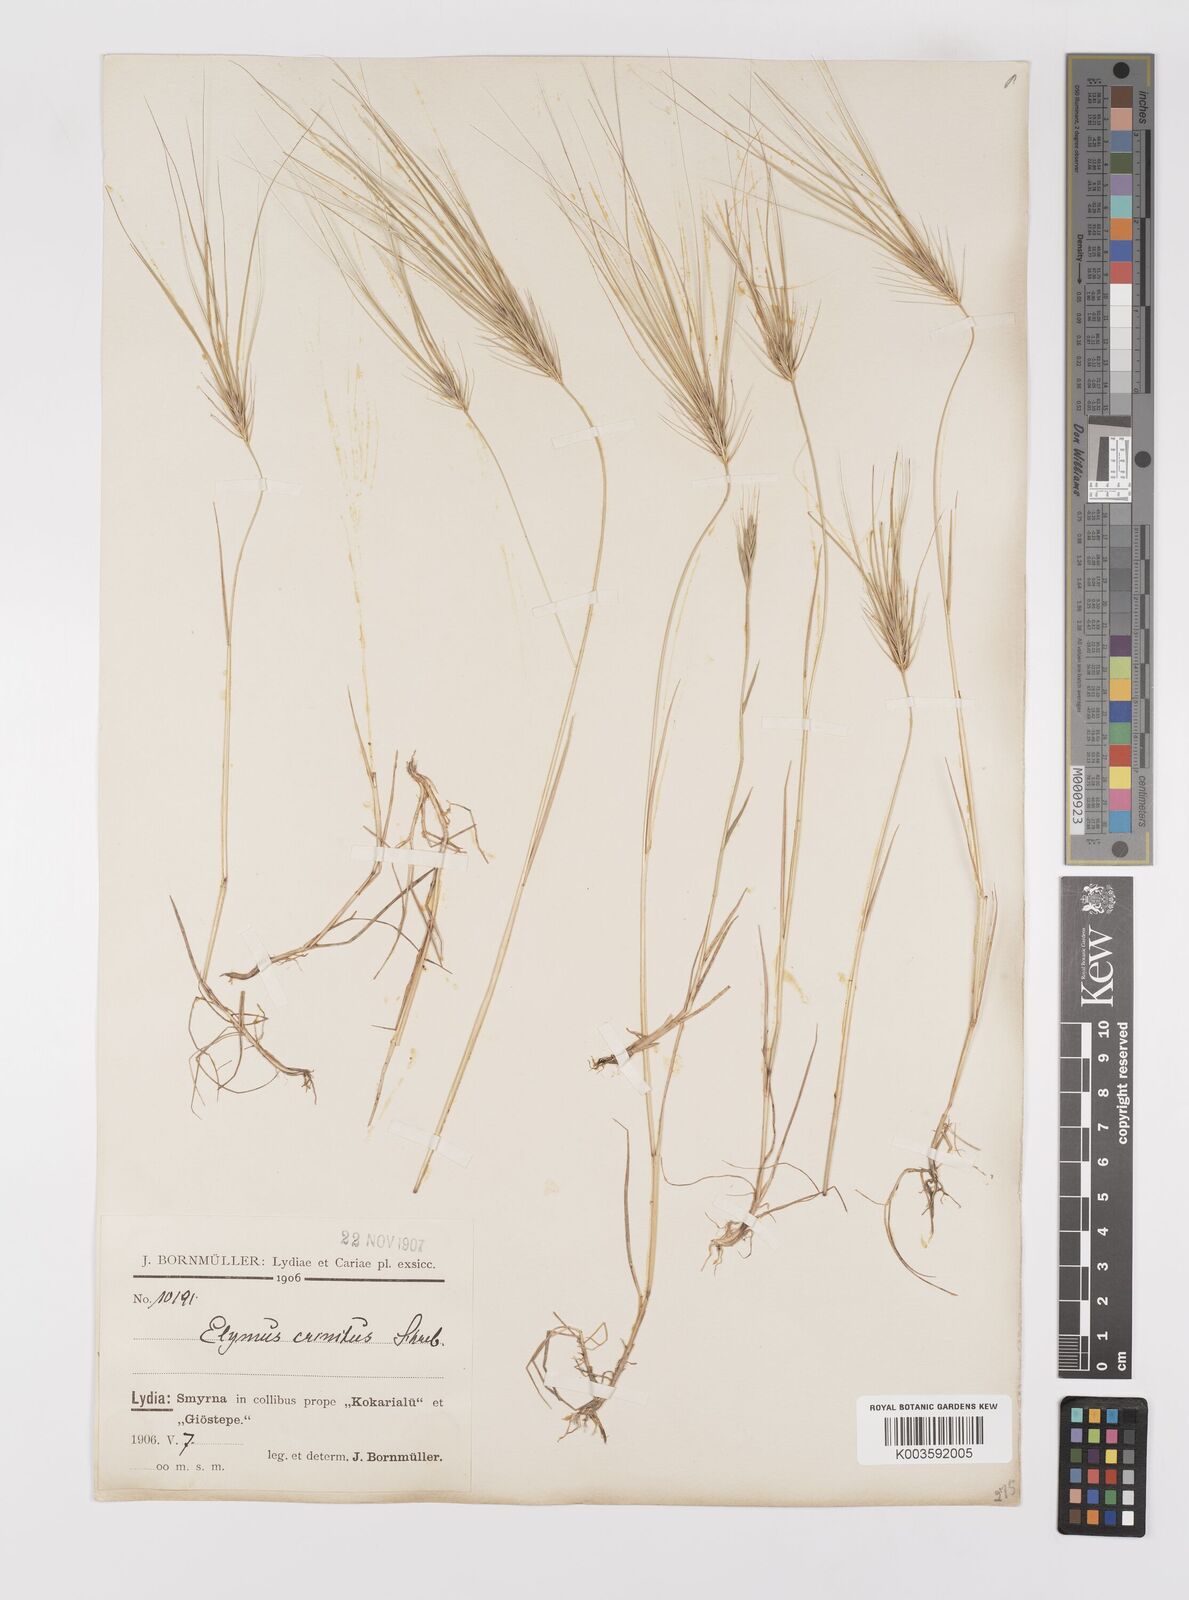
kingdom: Plantae
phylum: Tracheophyta
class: Liliopsida
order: Poales
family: Poaceae
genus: Taeniatherum
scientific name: Taeniatherum caput-medusae
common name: Medusahead
